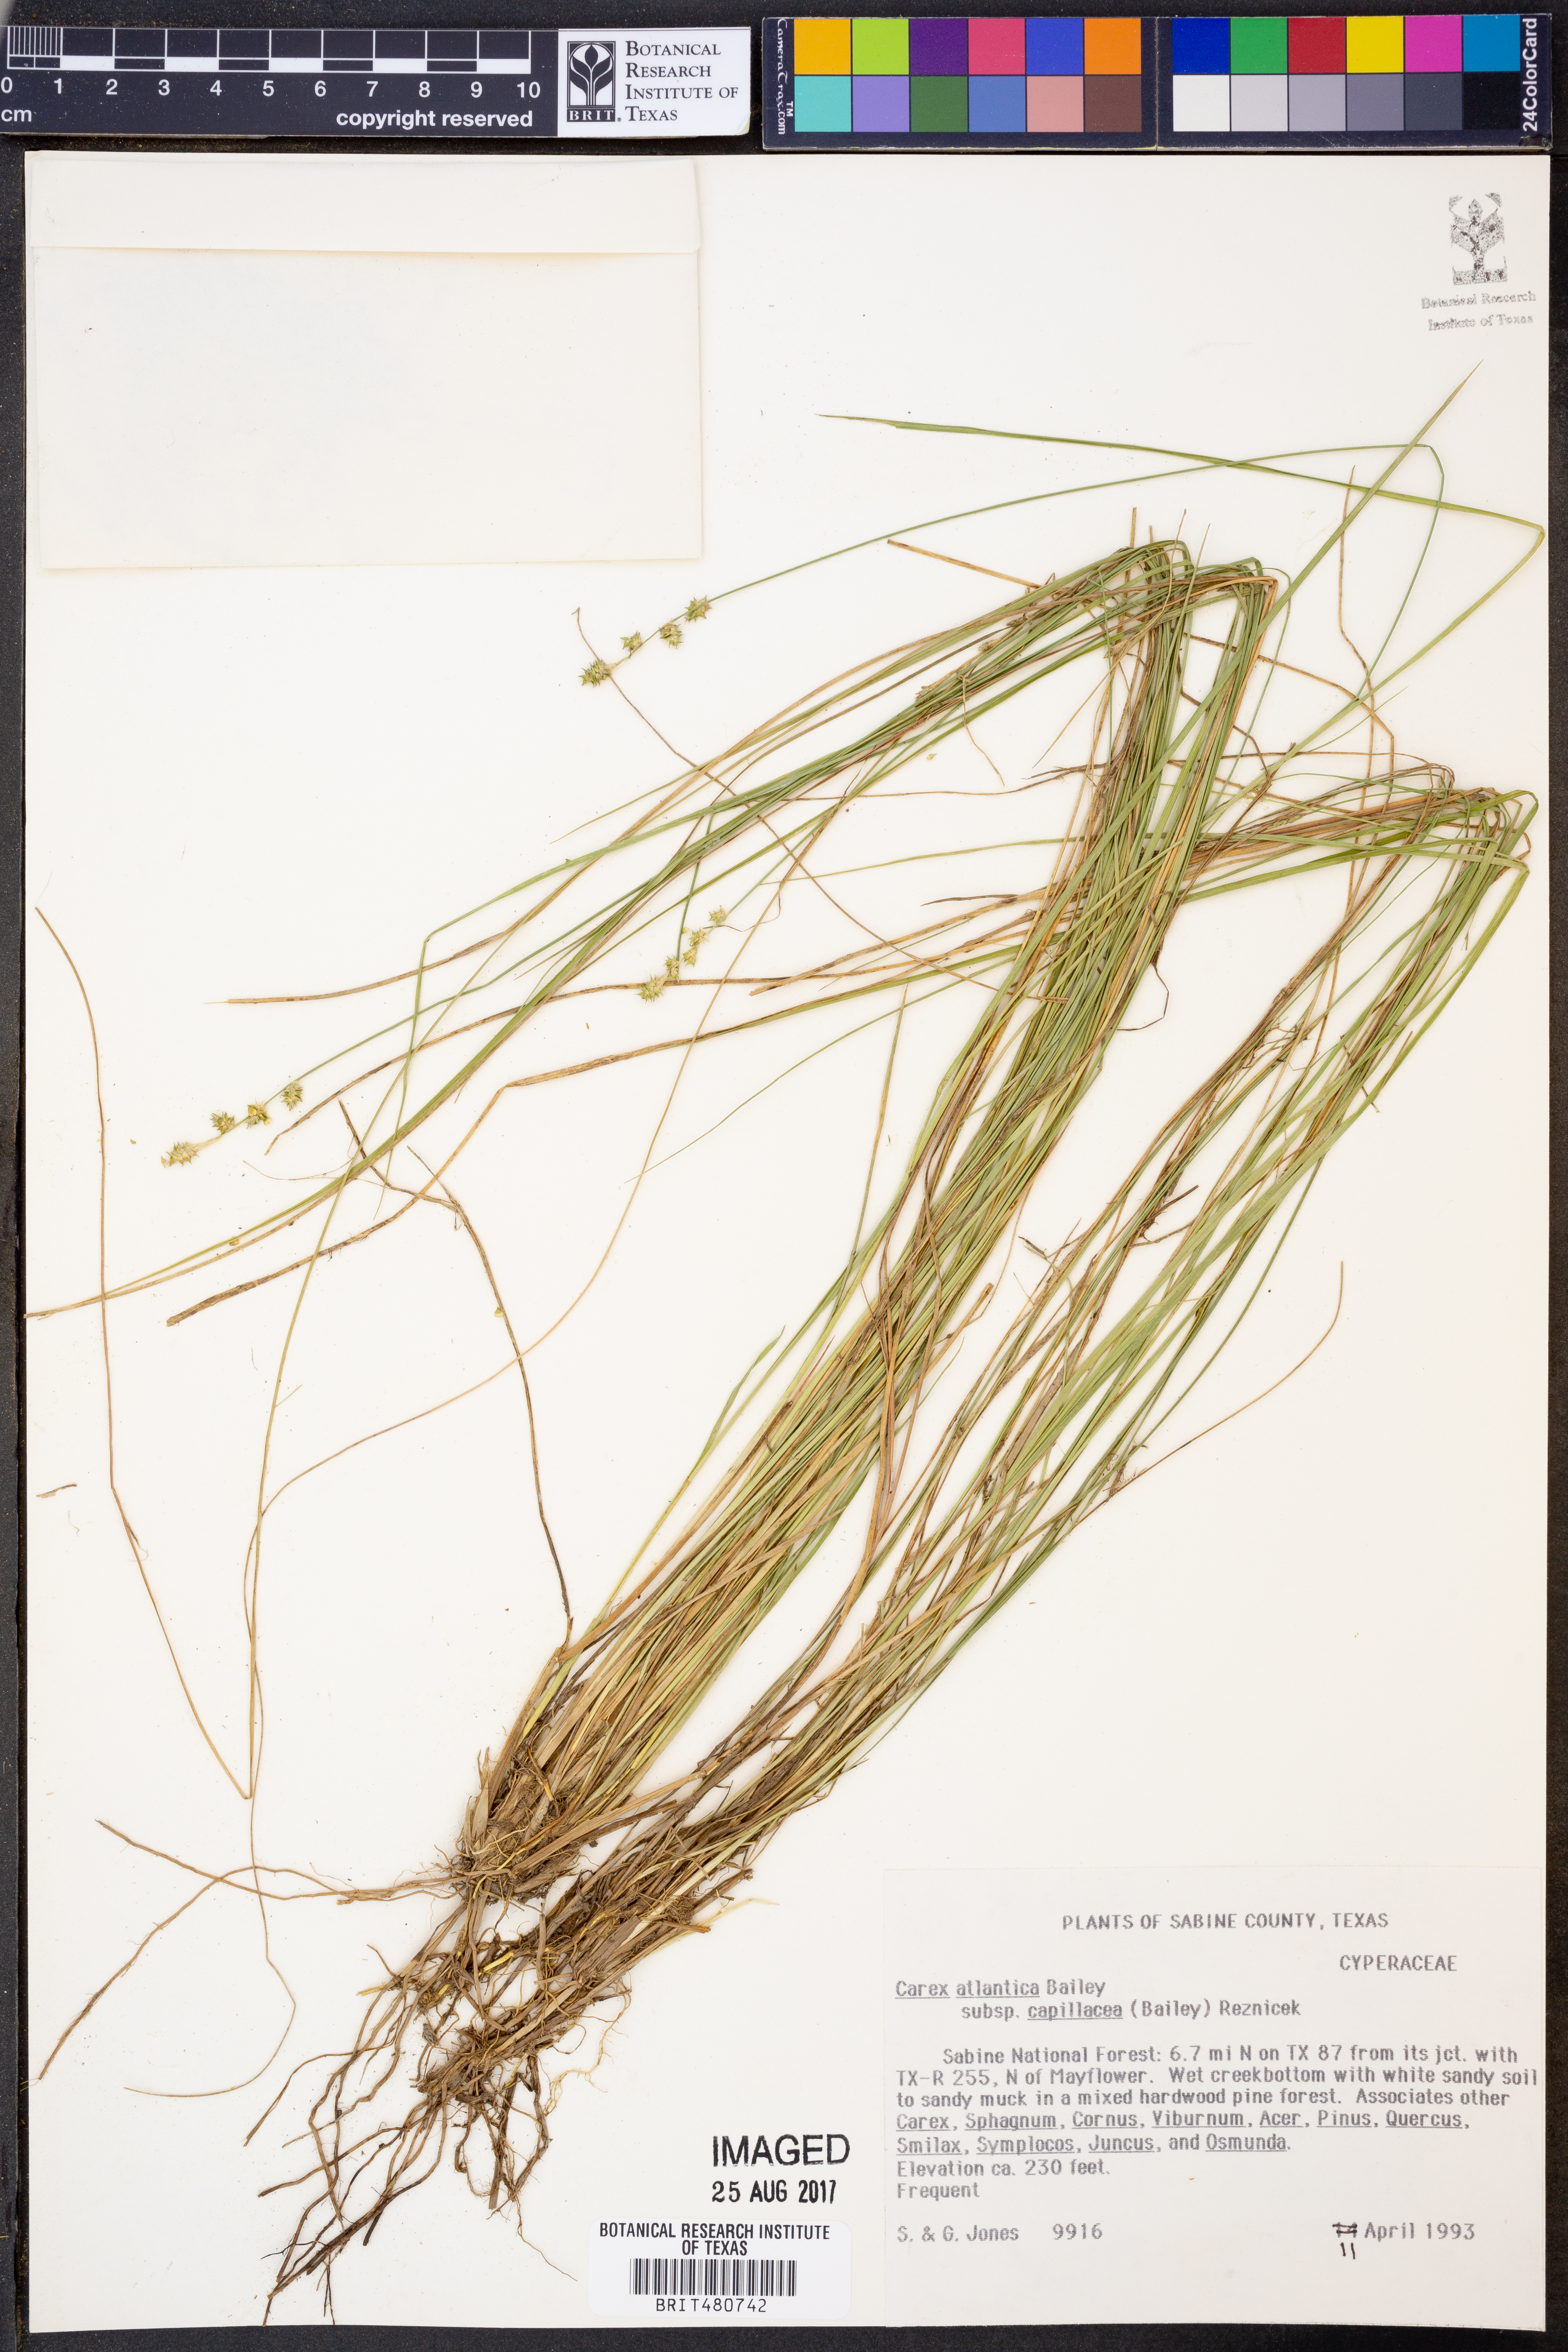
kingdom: Plantae
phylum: Tracheophyta
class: Liliopsida
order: Poales
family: Cyperaceae
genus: Carex
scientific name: Carex atlantica
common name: Atlantic sedge
